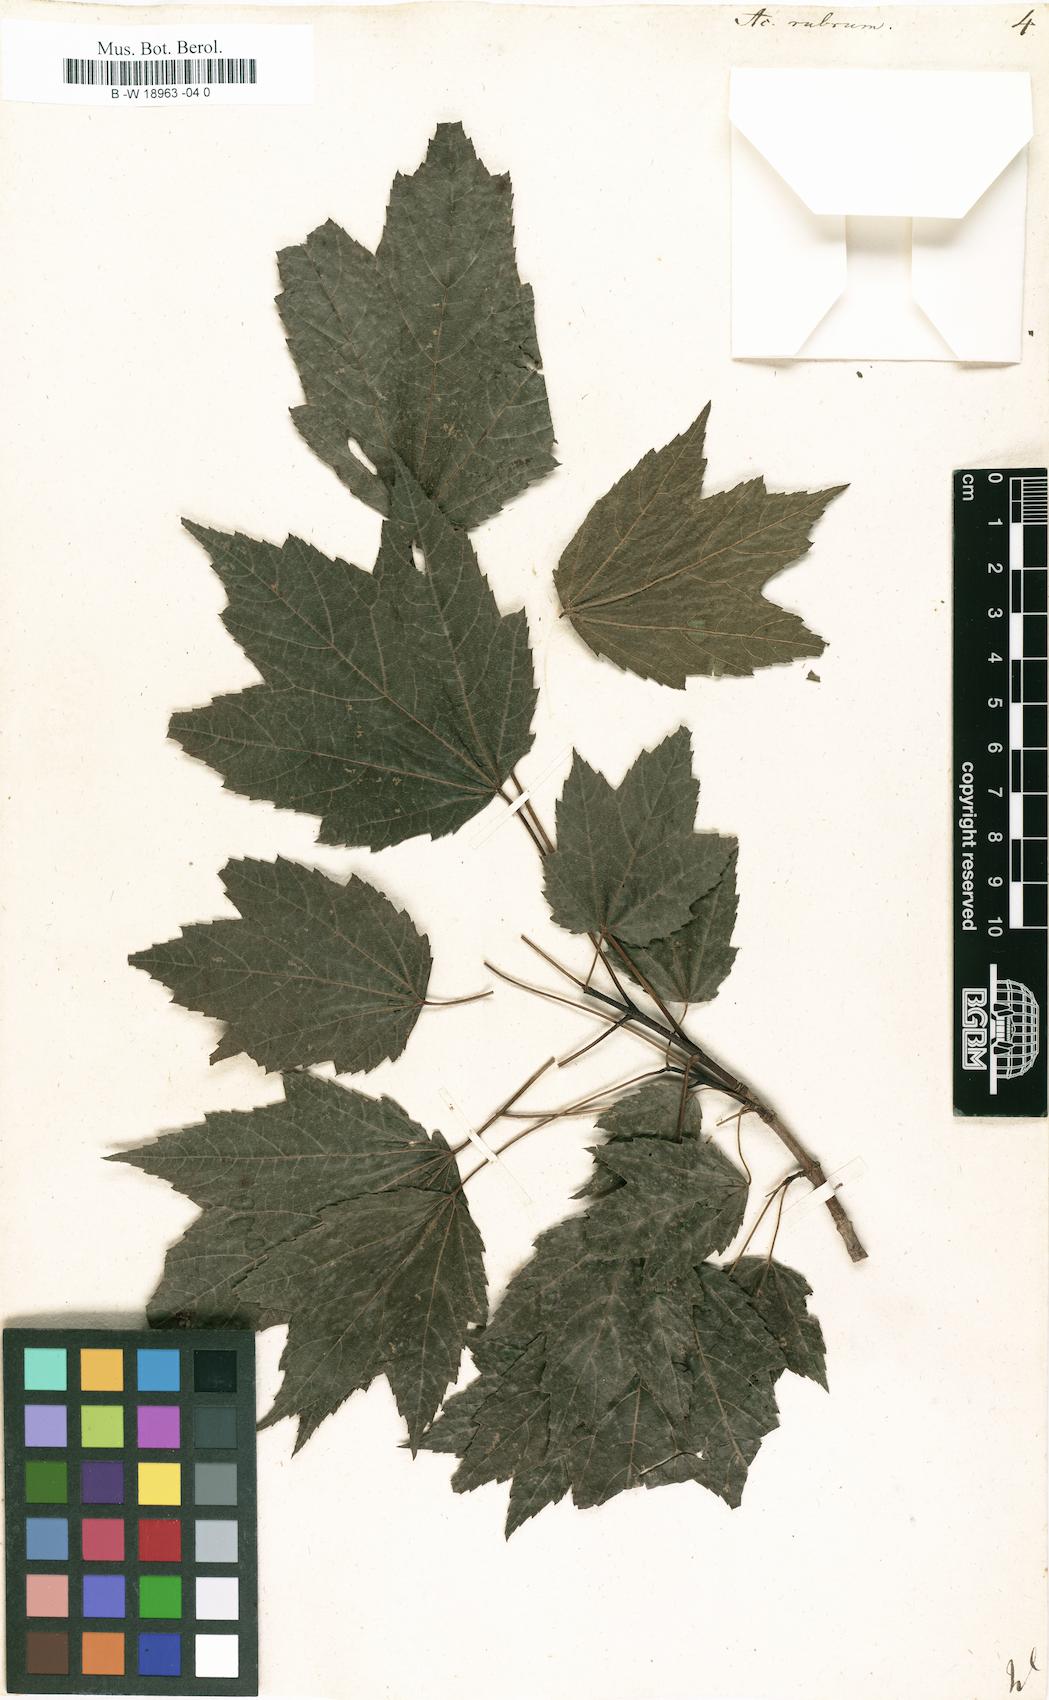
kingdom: Plantae
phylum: Tracheophyta
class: Magnoliopsida
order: Sapindales
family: Sapindaceae
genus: Acer
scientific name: Acer rubrum
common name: Red maple
